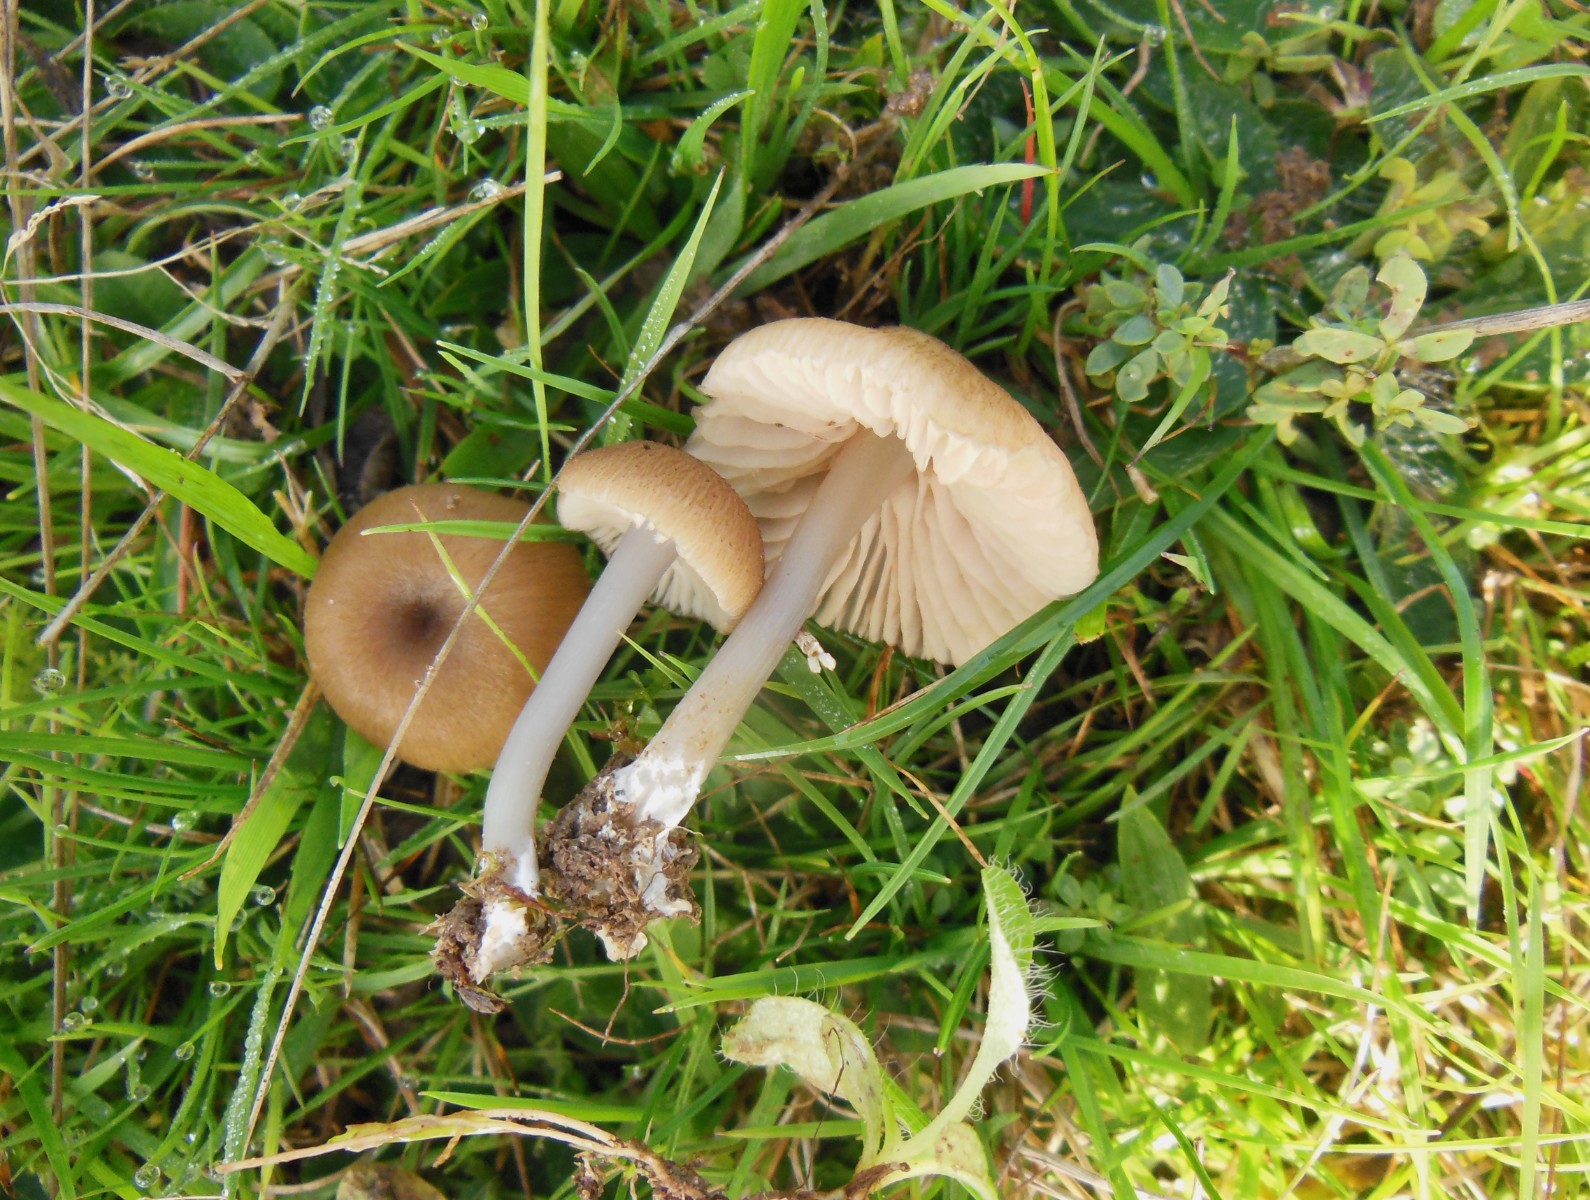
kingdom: Fungi
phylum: Basidiomycota
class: Agaricomycetes
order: Agaricales
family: Entolomataceae
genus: Entoloma
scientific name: Entoloma isborscanum
